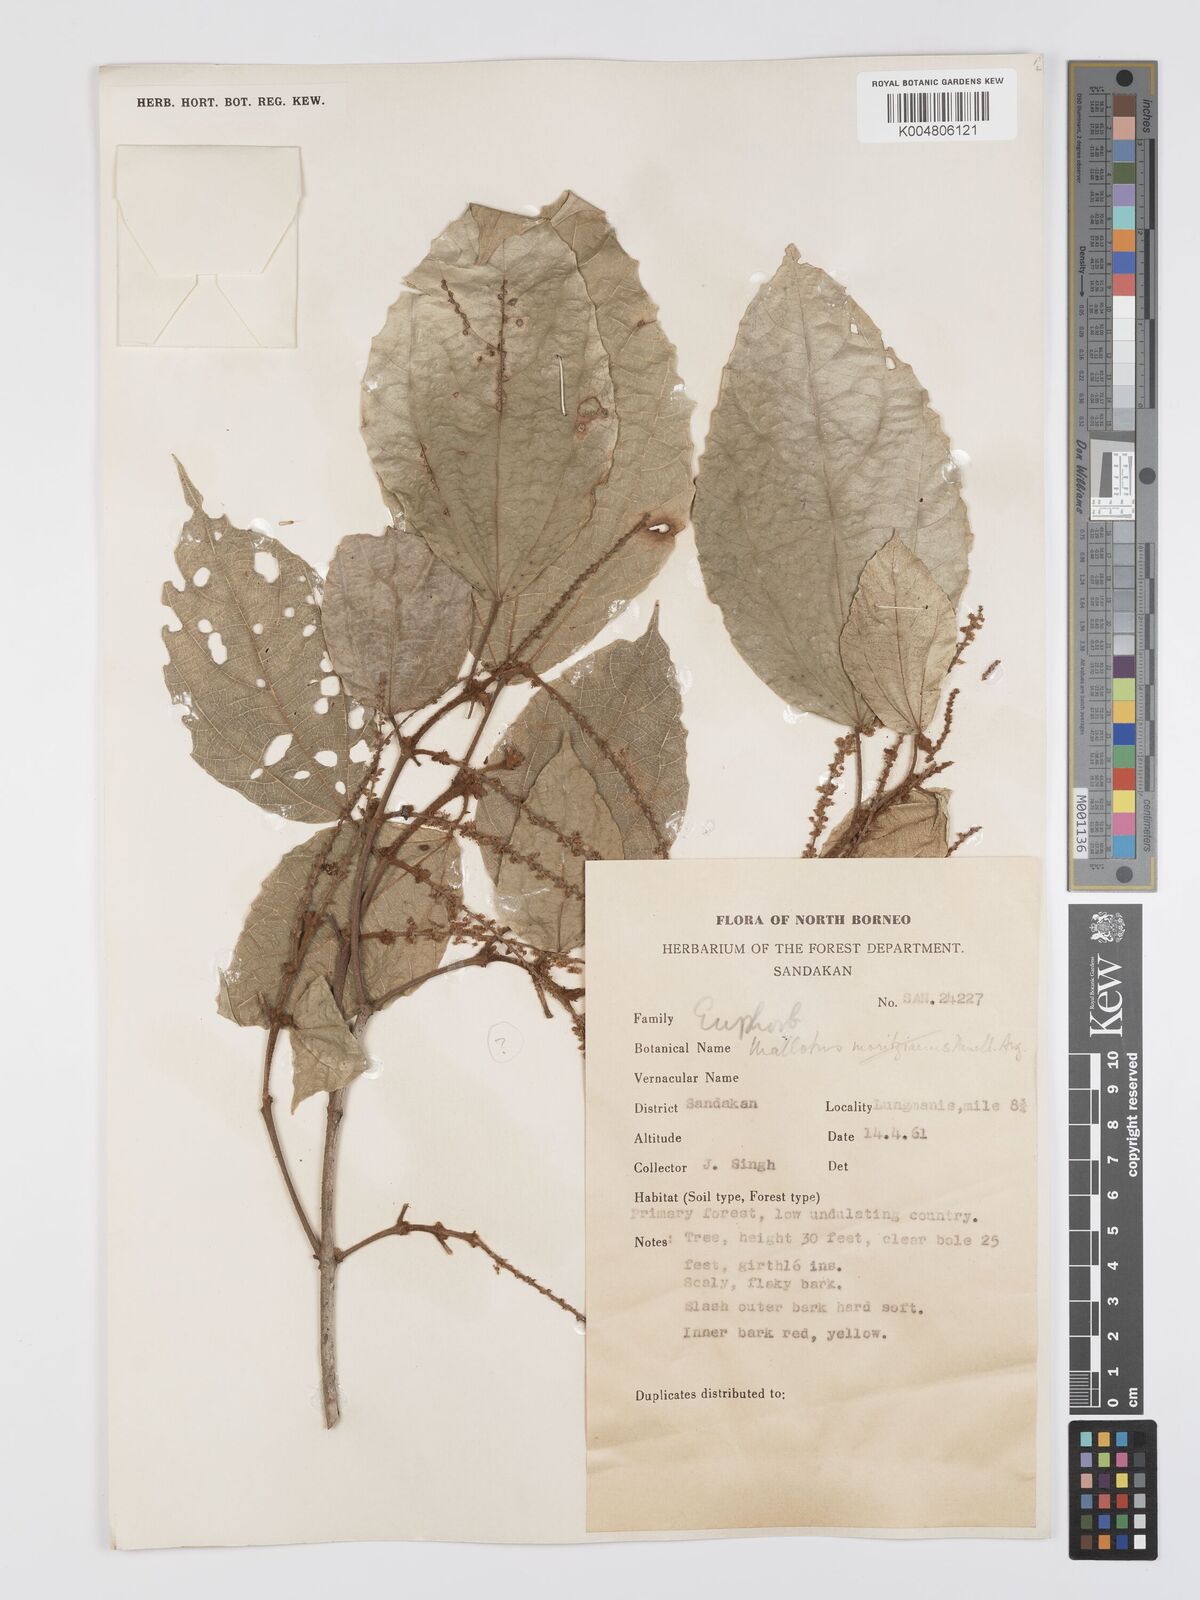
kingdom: Plantae
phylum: Tracheophyta
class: Magnoliopsida
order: Malpighiales
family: Euphorbiaceae
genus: Mallotus
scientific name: Mallotus korthalsii
